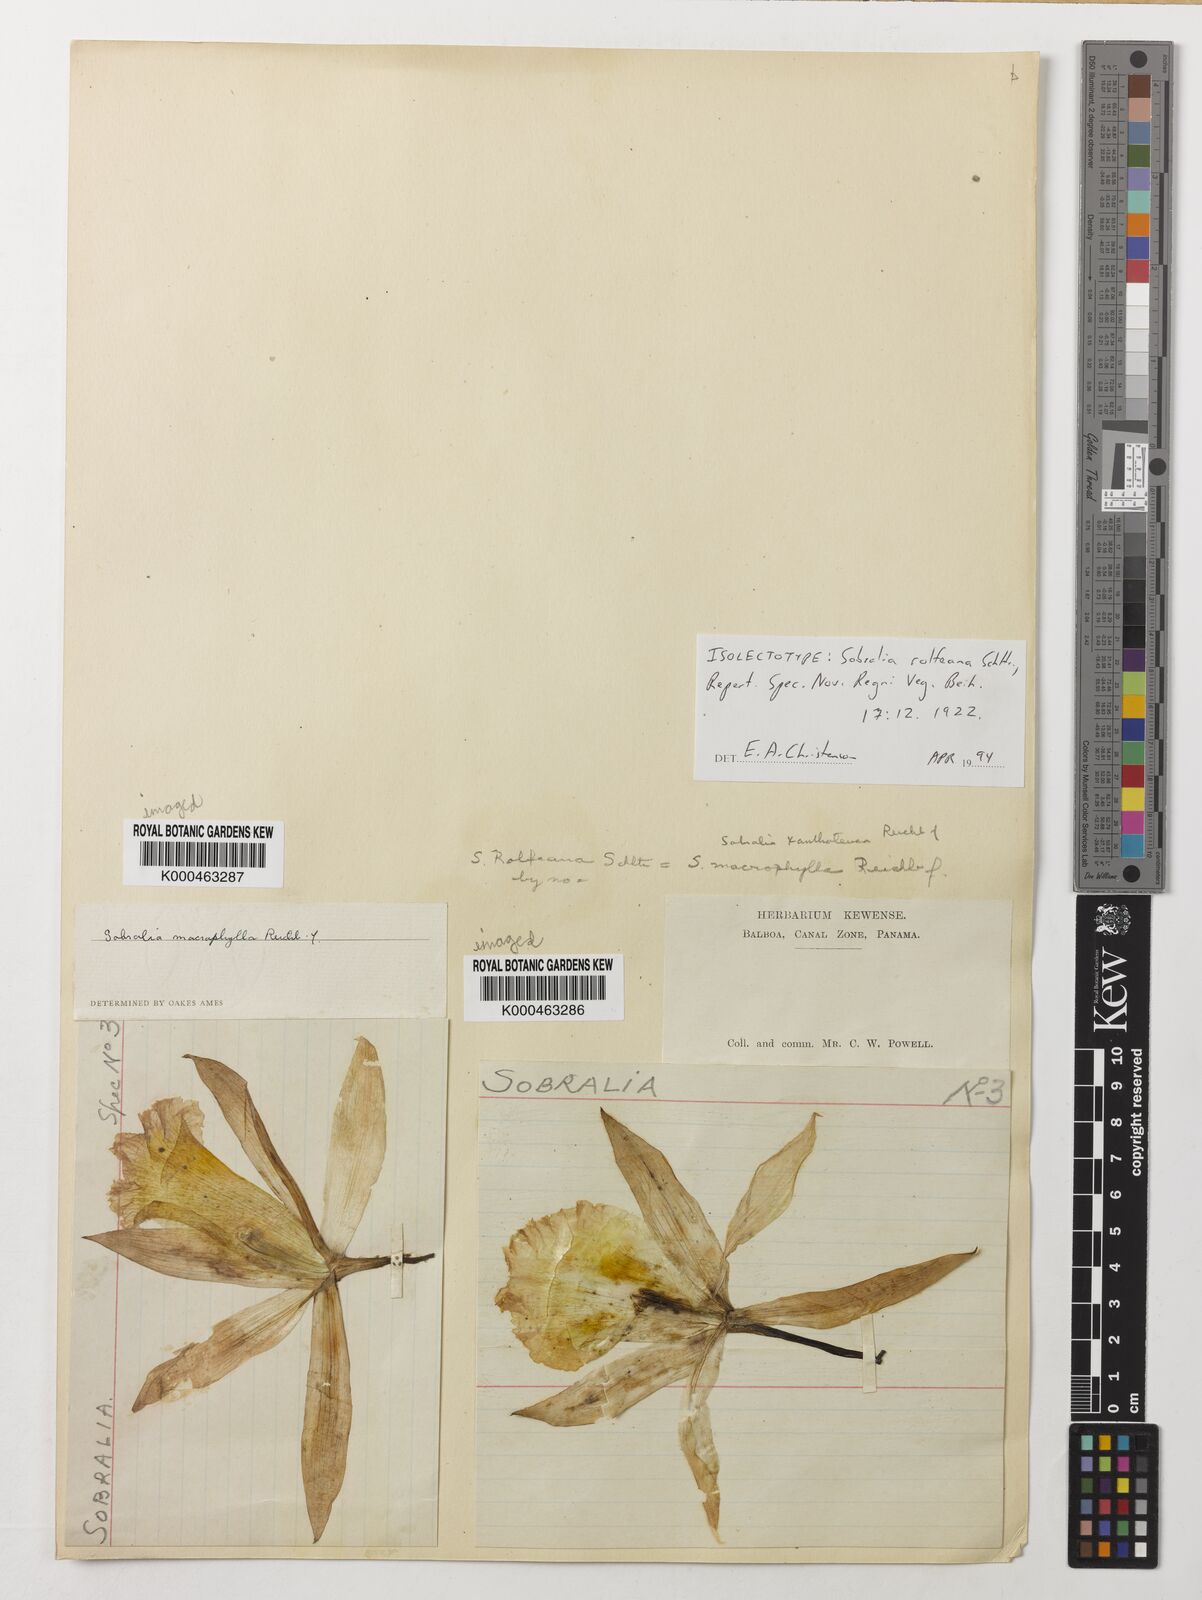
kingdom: Plantae
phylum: Tracheophyta
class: Liliopsida
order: Asparagales
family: Orchidaceae
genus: Sobralia
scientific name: Sobralia macrophylla
